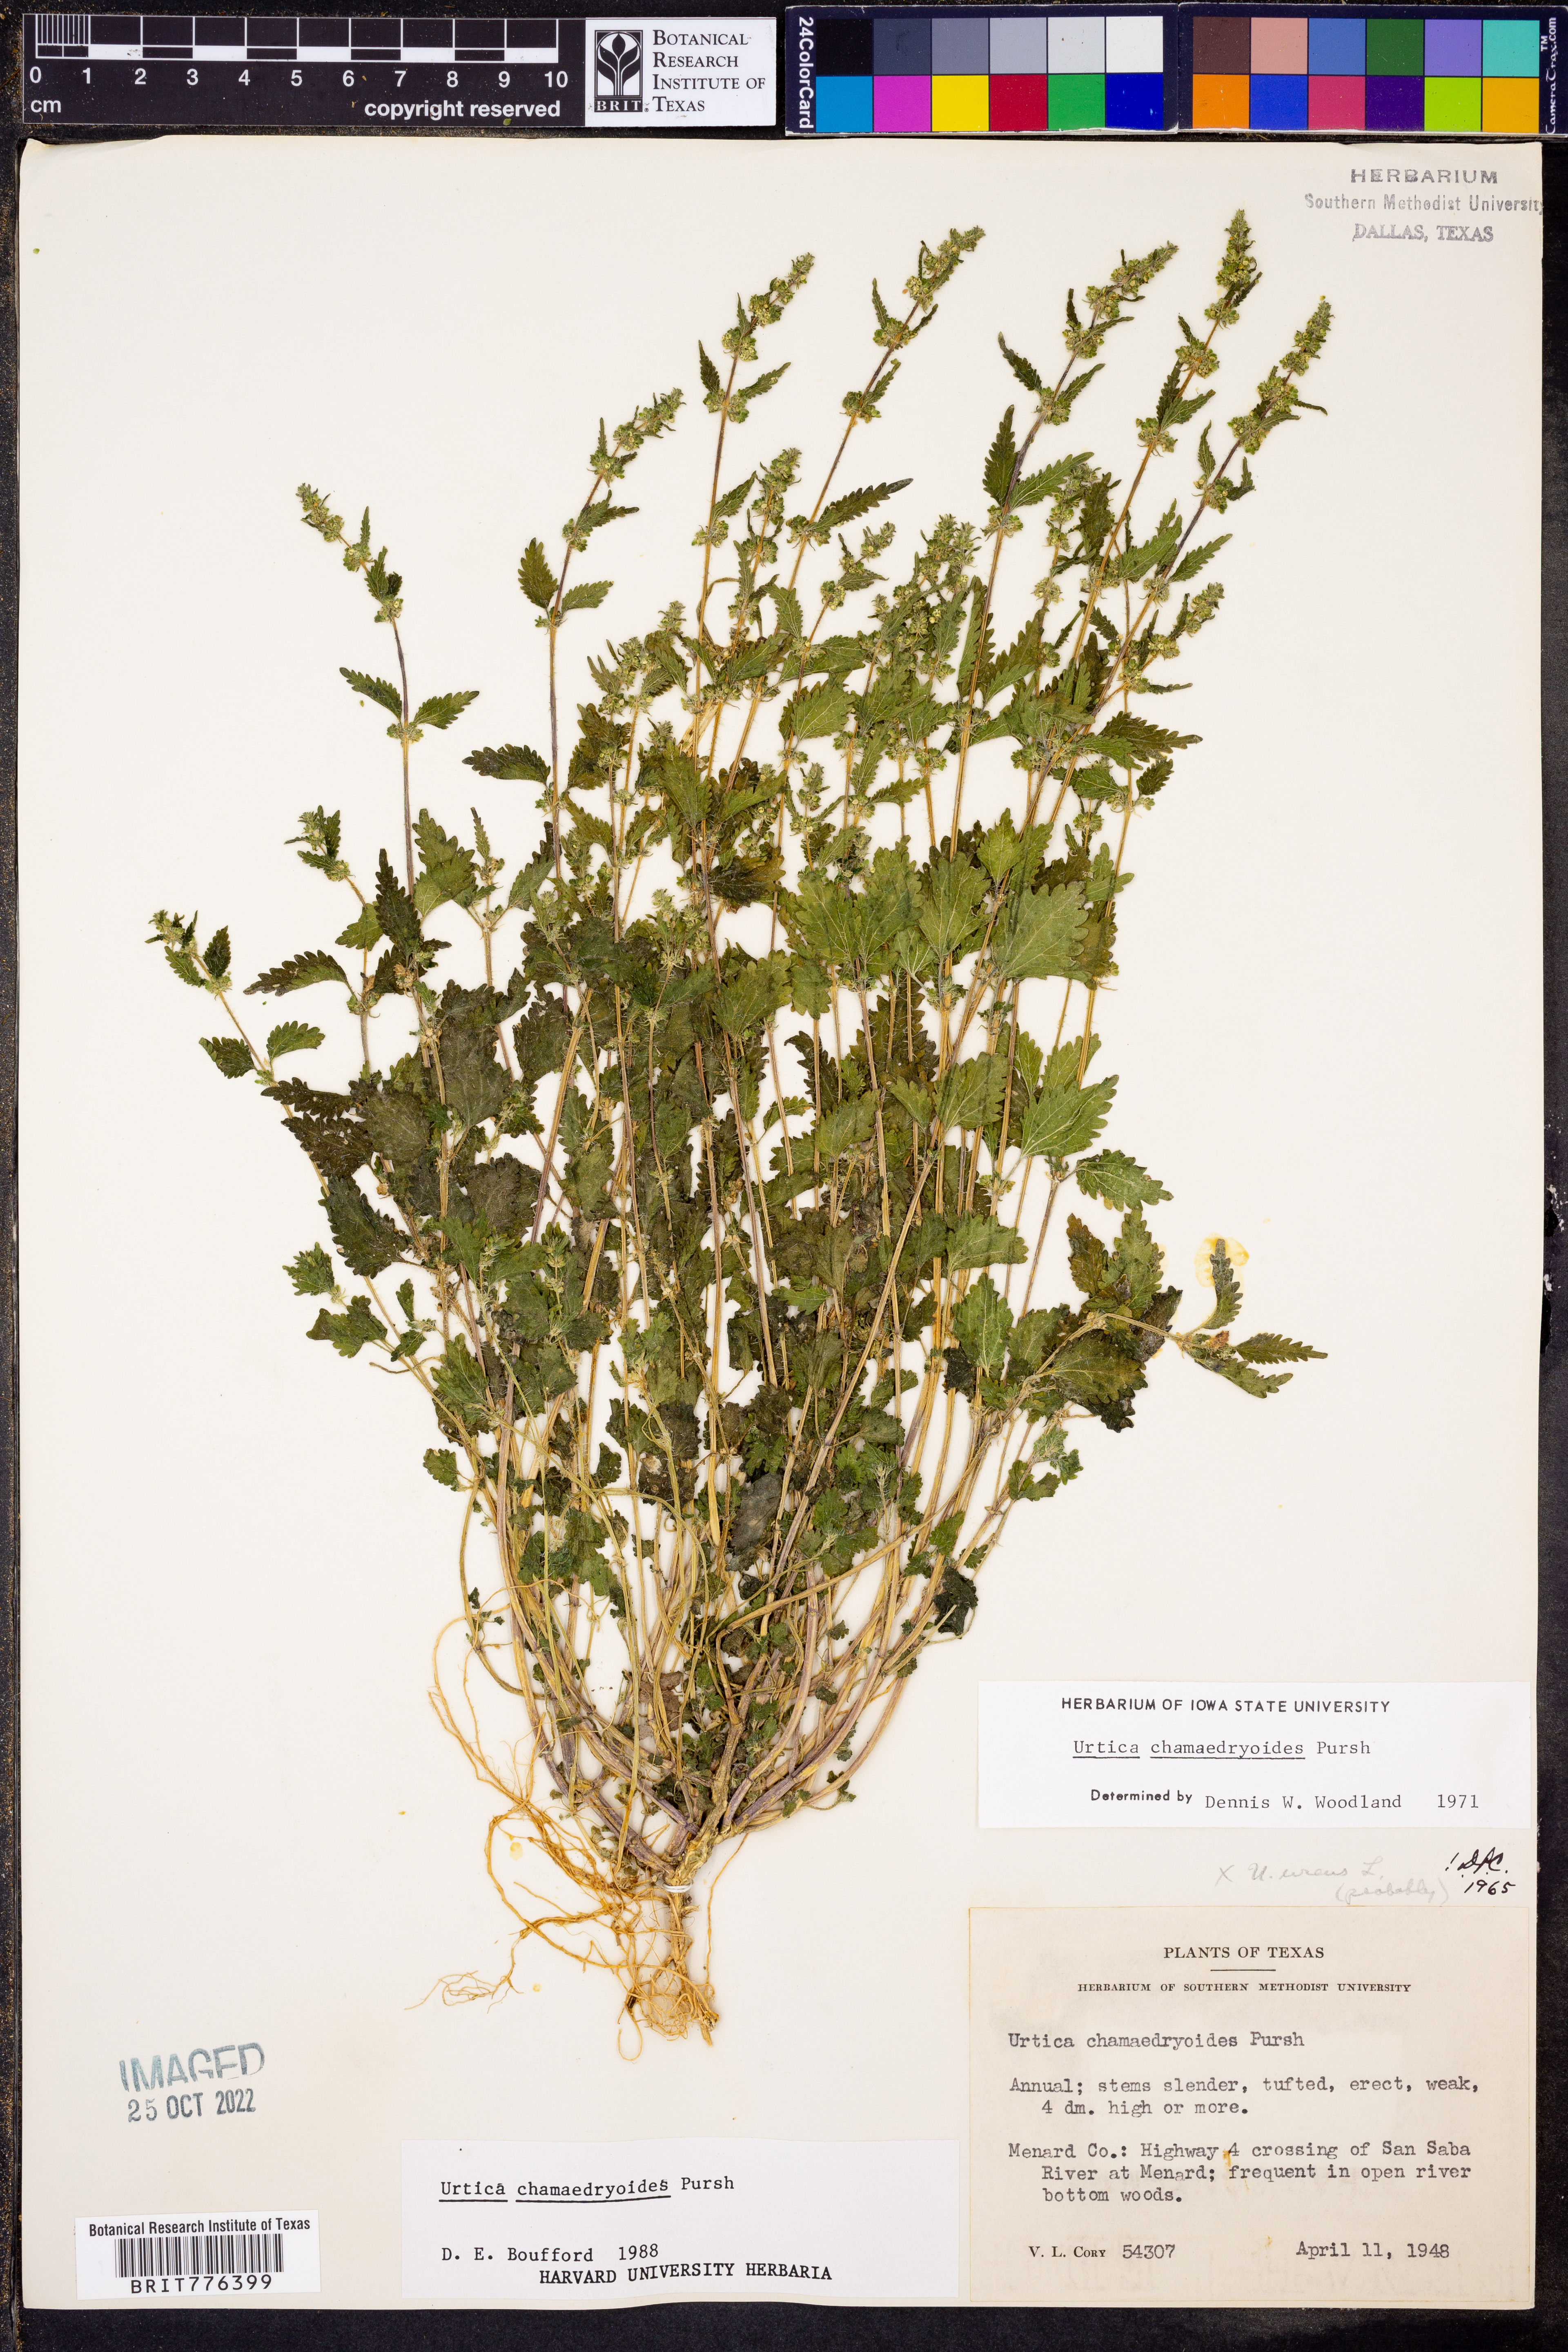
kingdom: Plantae
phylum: Tracheophyta
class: Magnoliopsida
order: Rosales
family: Urticaceae
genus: Urtica
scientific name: Urtica chamaedryoides
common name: Heart-leaf nettle
